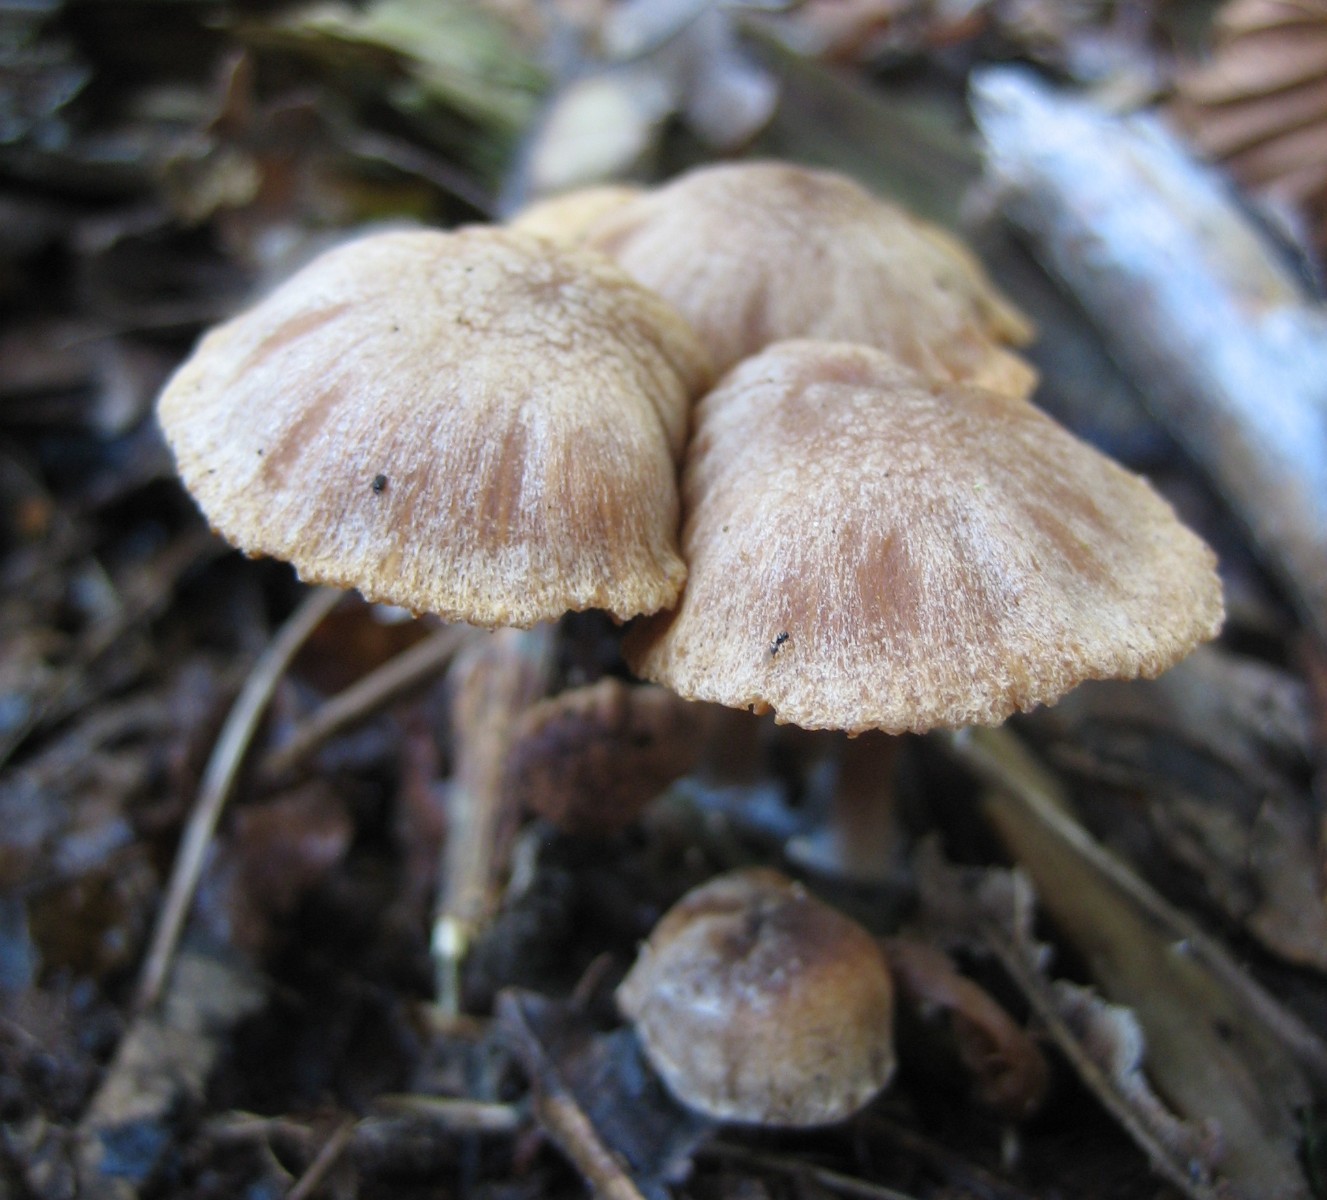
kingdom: Fungi
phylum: Basidiomycota
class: Agaricomycetes
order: Agaricales
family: Tubariaceae
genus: Tubaria
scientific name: Tubaria
